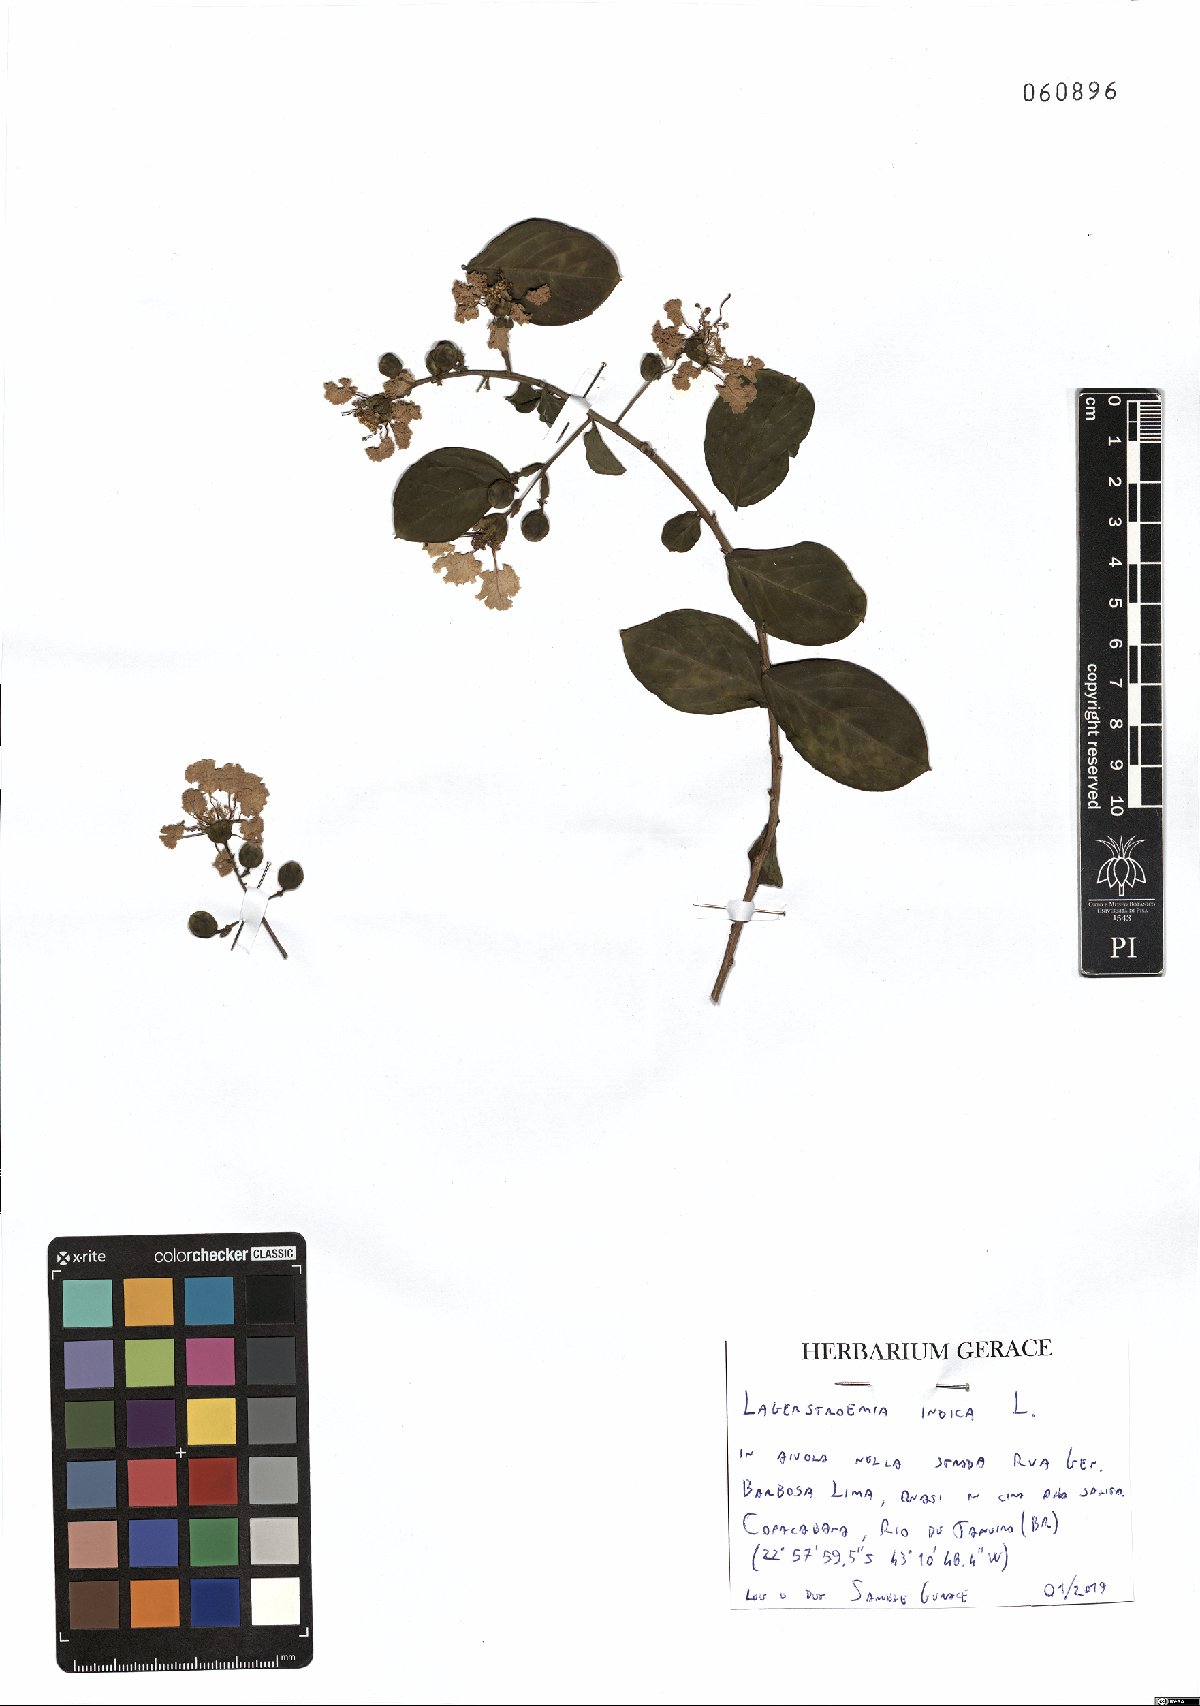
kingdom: Plantae
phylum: Tracheophyta
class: Magnoliopsida
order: Myrtales
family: Lythraceae
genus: Lagerstroemia
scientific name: Lagerstroemia indica
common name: Crape-myrtle
